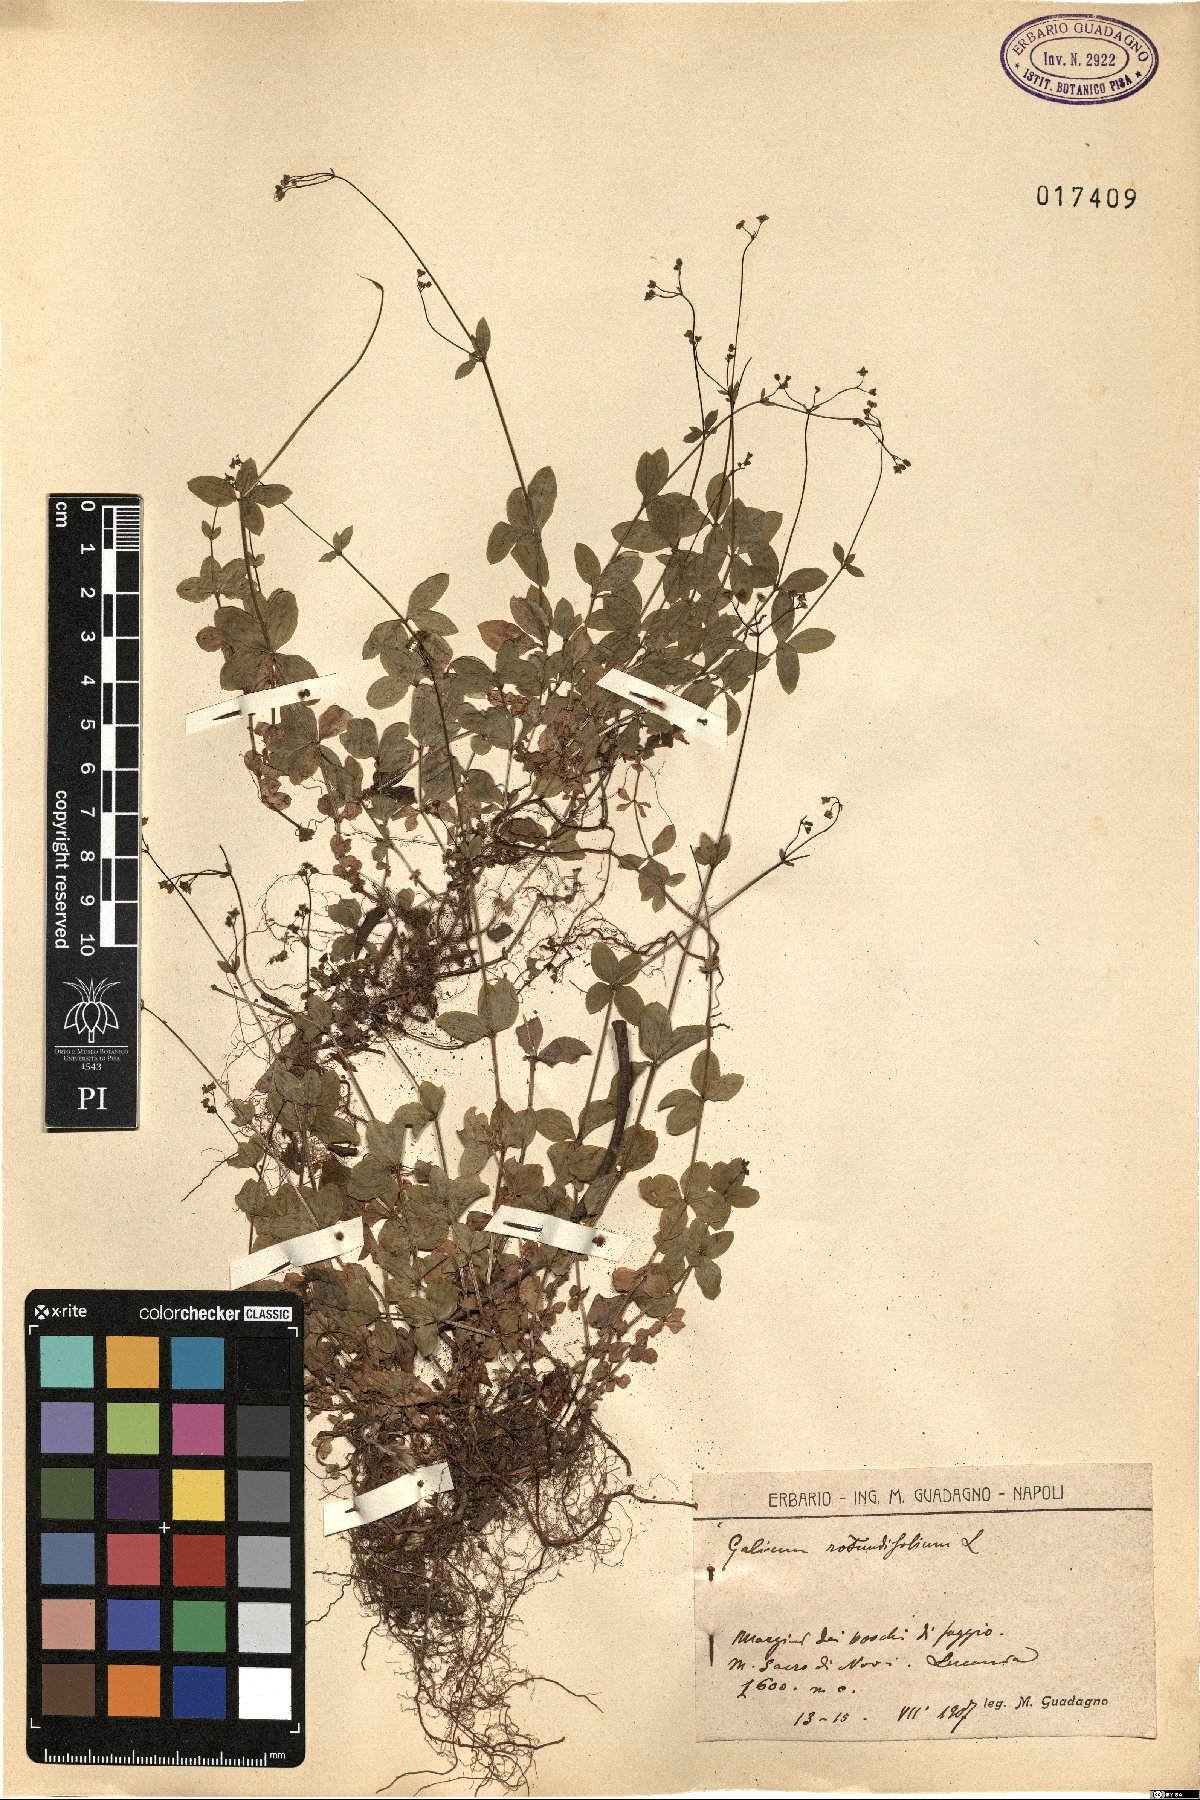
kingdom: Plantae
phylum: Tracheophyta
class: Magnoliopsida
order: Gentianales
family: Rubiaceae
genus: Galium
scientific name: Galium rotundifolium
